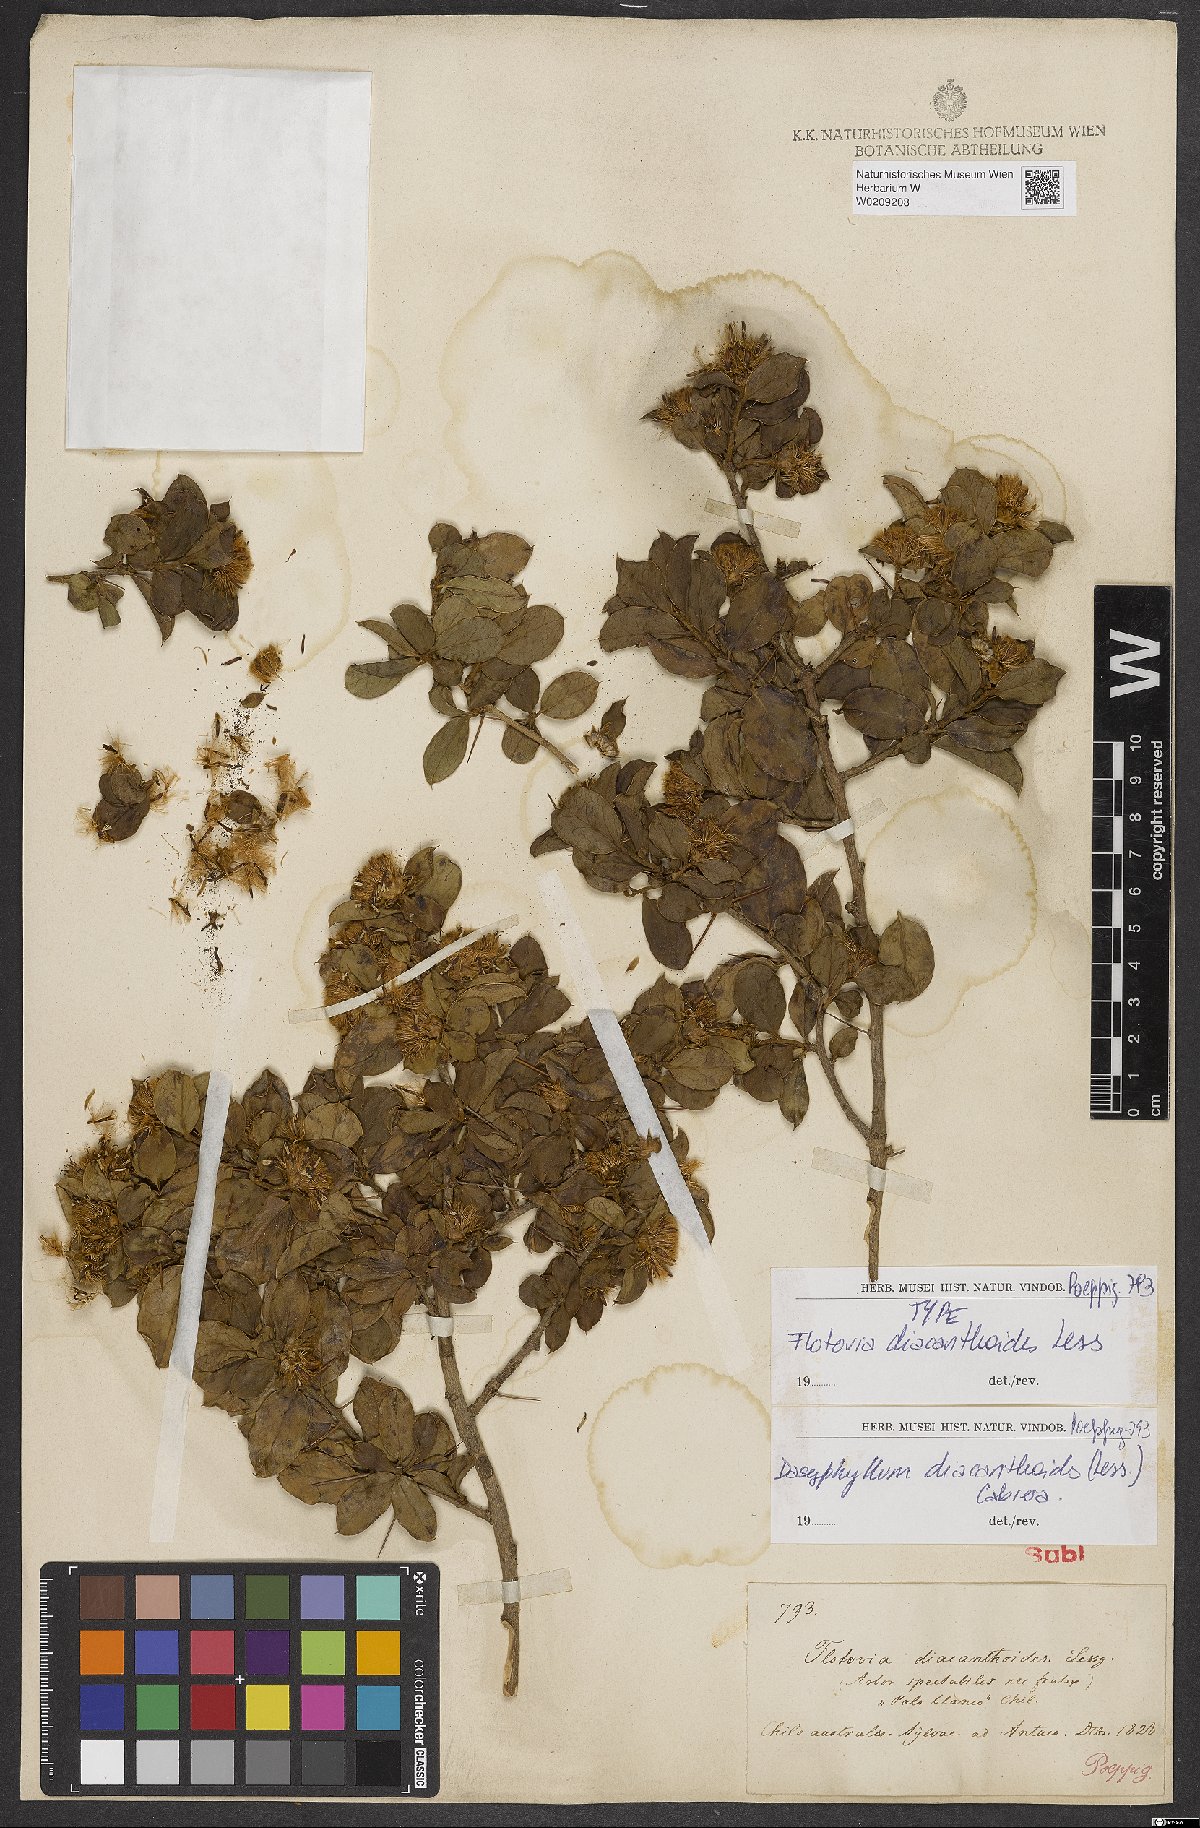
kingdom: Plantae
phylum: Tracheophyta
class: Magnoliopsida
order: Asterales
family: Asteraceae
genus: Archidasyphyllum
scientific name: Archidasyphyllum diacanthoides
